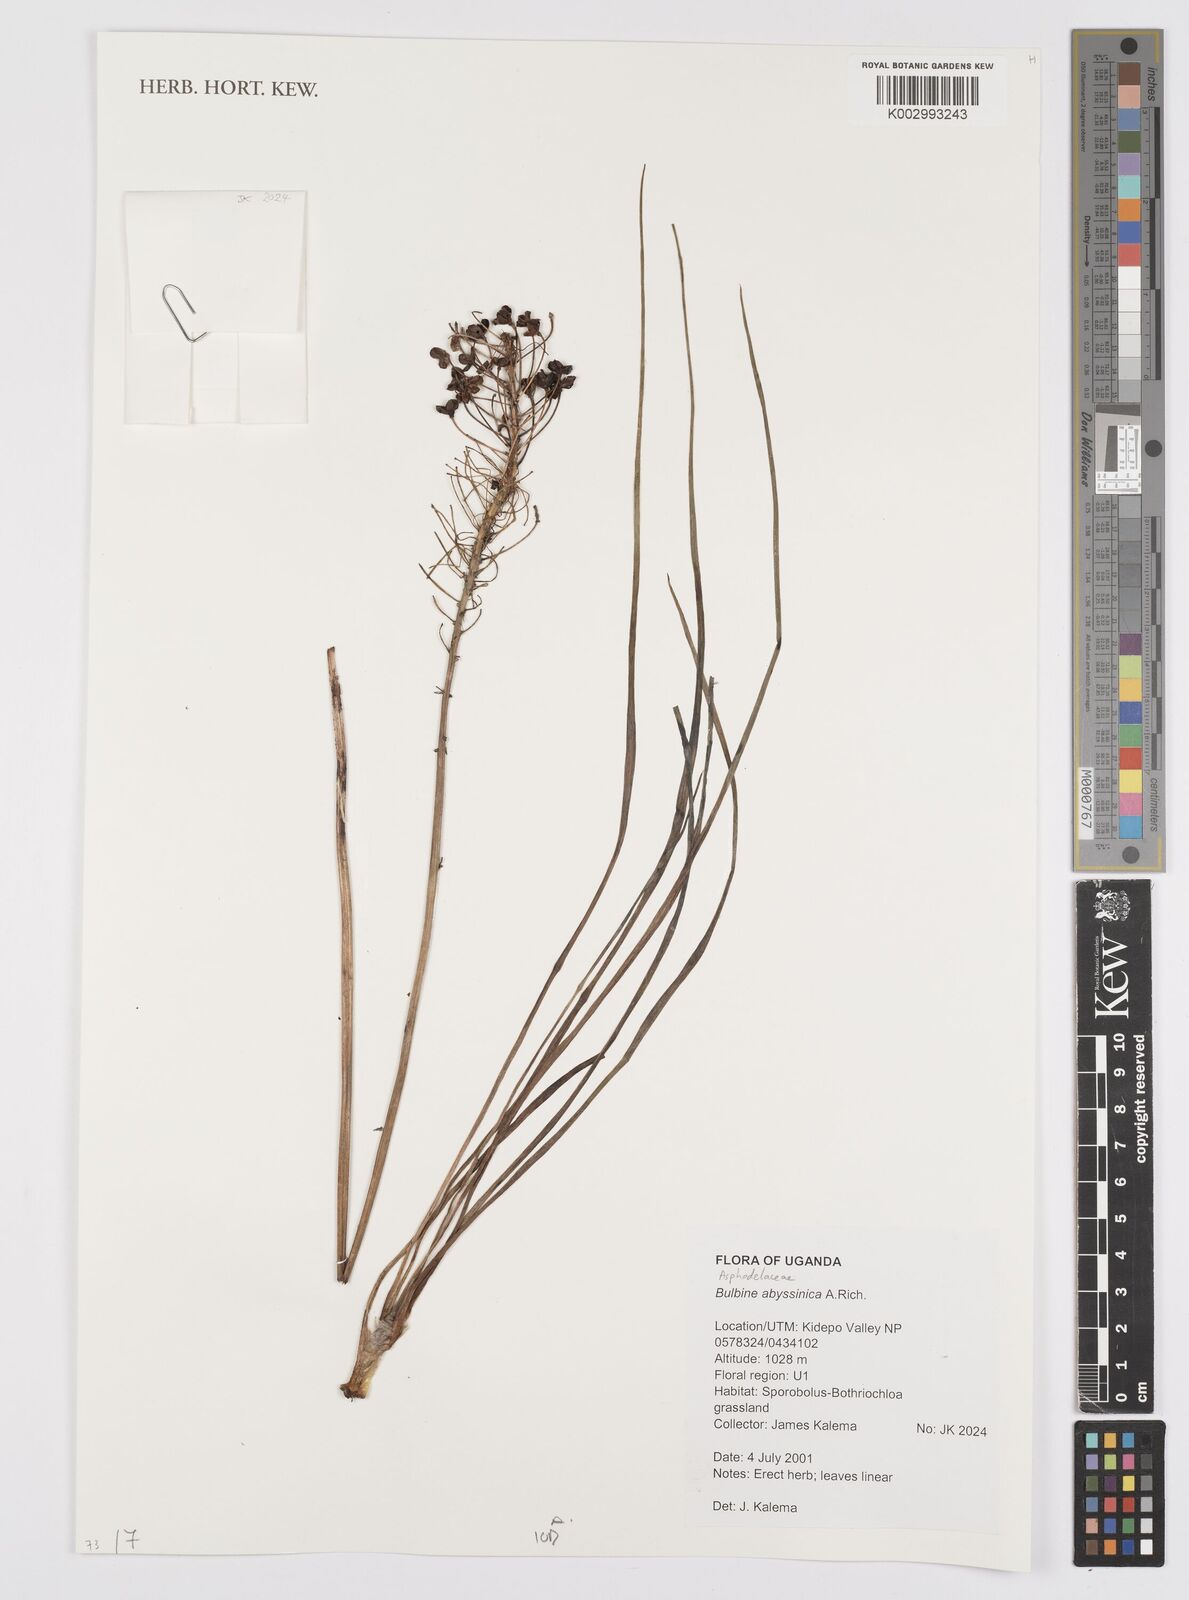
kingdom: Plantae
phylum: Tracheophyta
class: Liliopsida
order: Asparagales
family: Asphodelaceae
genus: Bulbine
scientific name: Bulbine abyssinica
